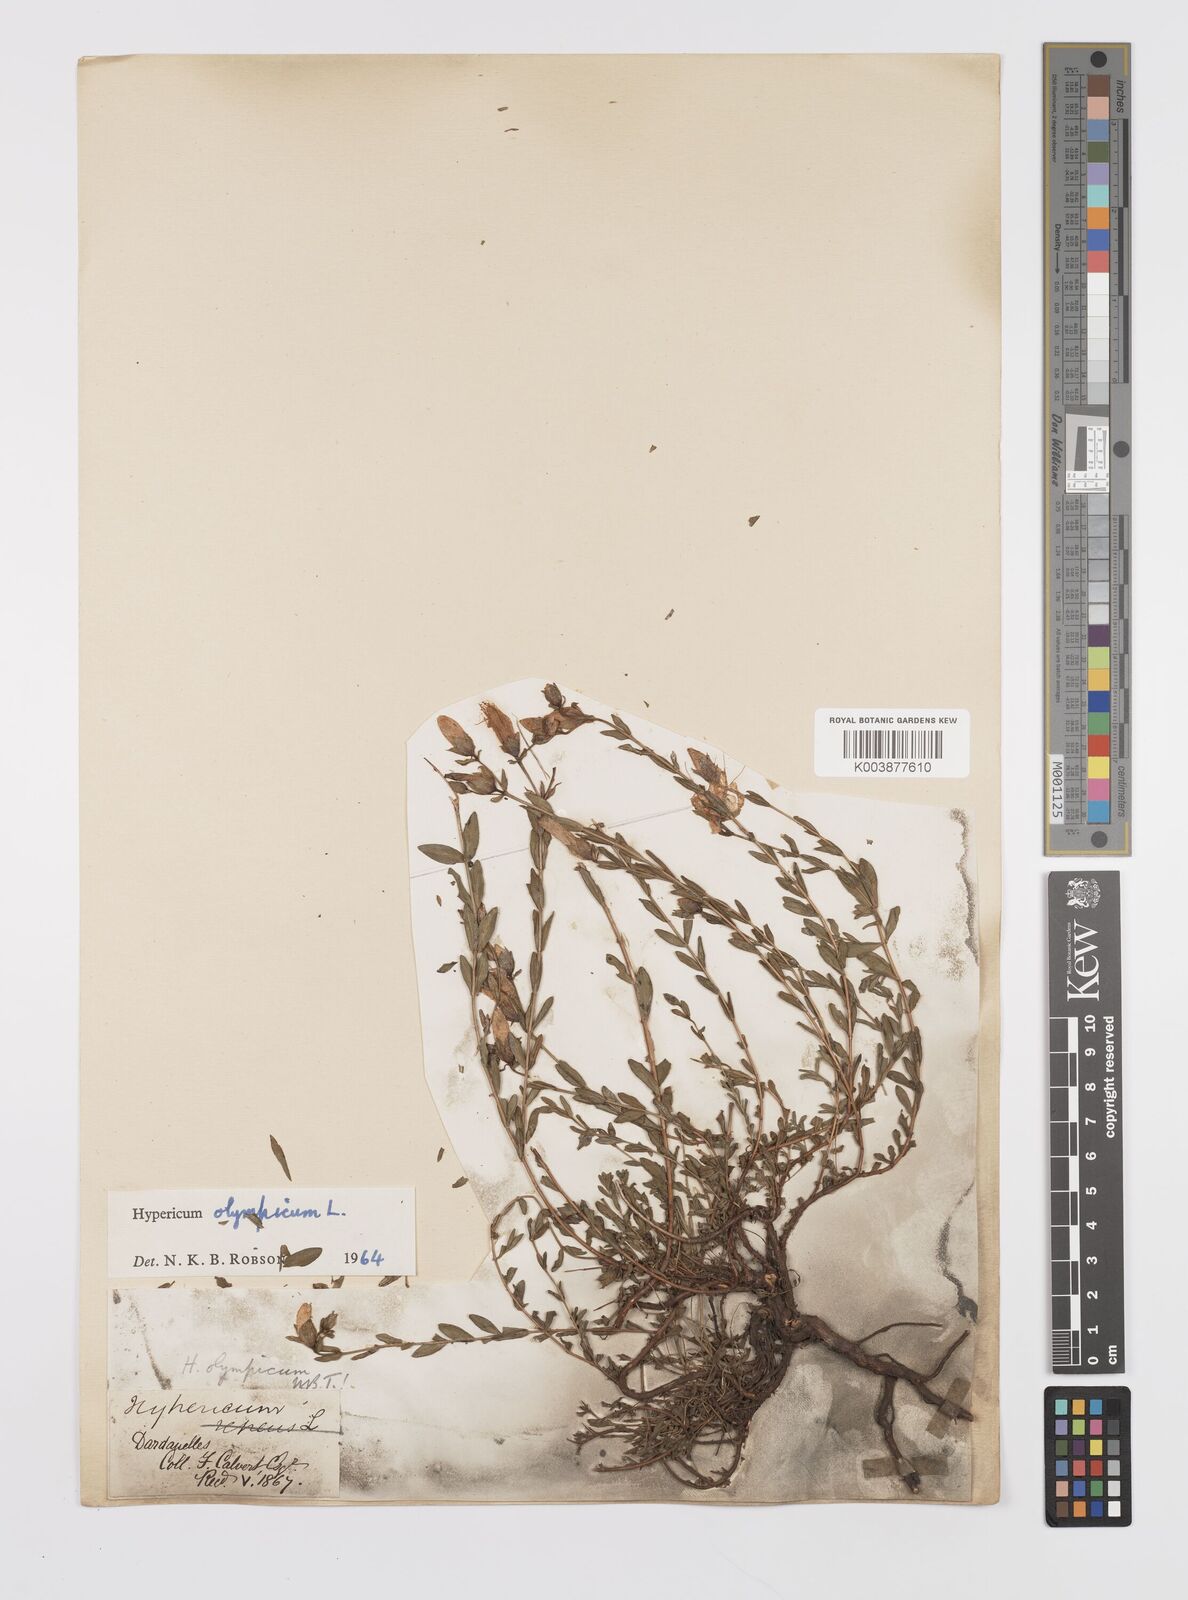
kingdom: Plantae
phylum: Tracheophyta
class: Magnoliopsida
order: Malpighiales
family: Hypericaceae
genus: Hypericum
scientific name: Hypericum olympicum
